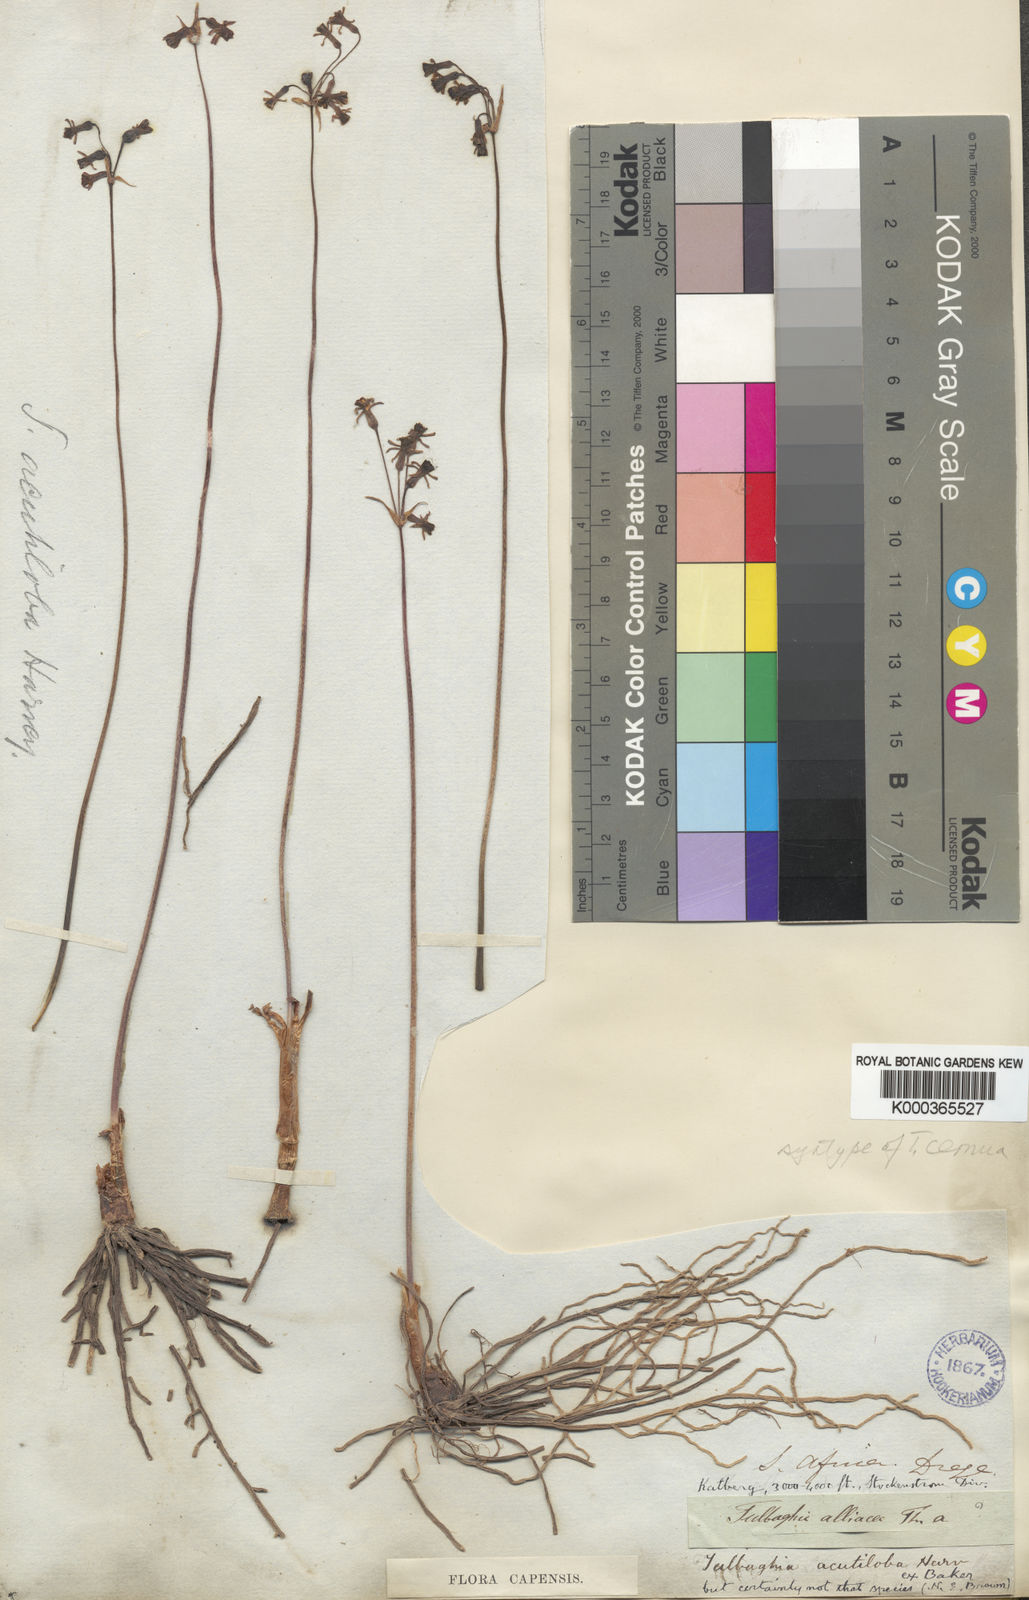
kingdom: Plantae
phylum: Tracheophyta
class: Liliopsida
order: Asparagales
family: Amaryllidaceae
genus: Tulbaghia
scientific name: Tulbaghia cernua
